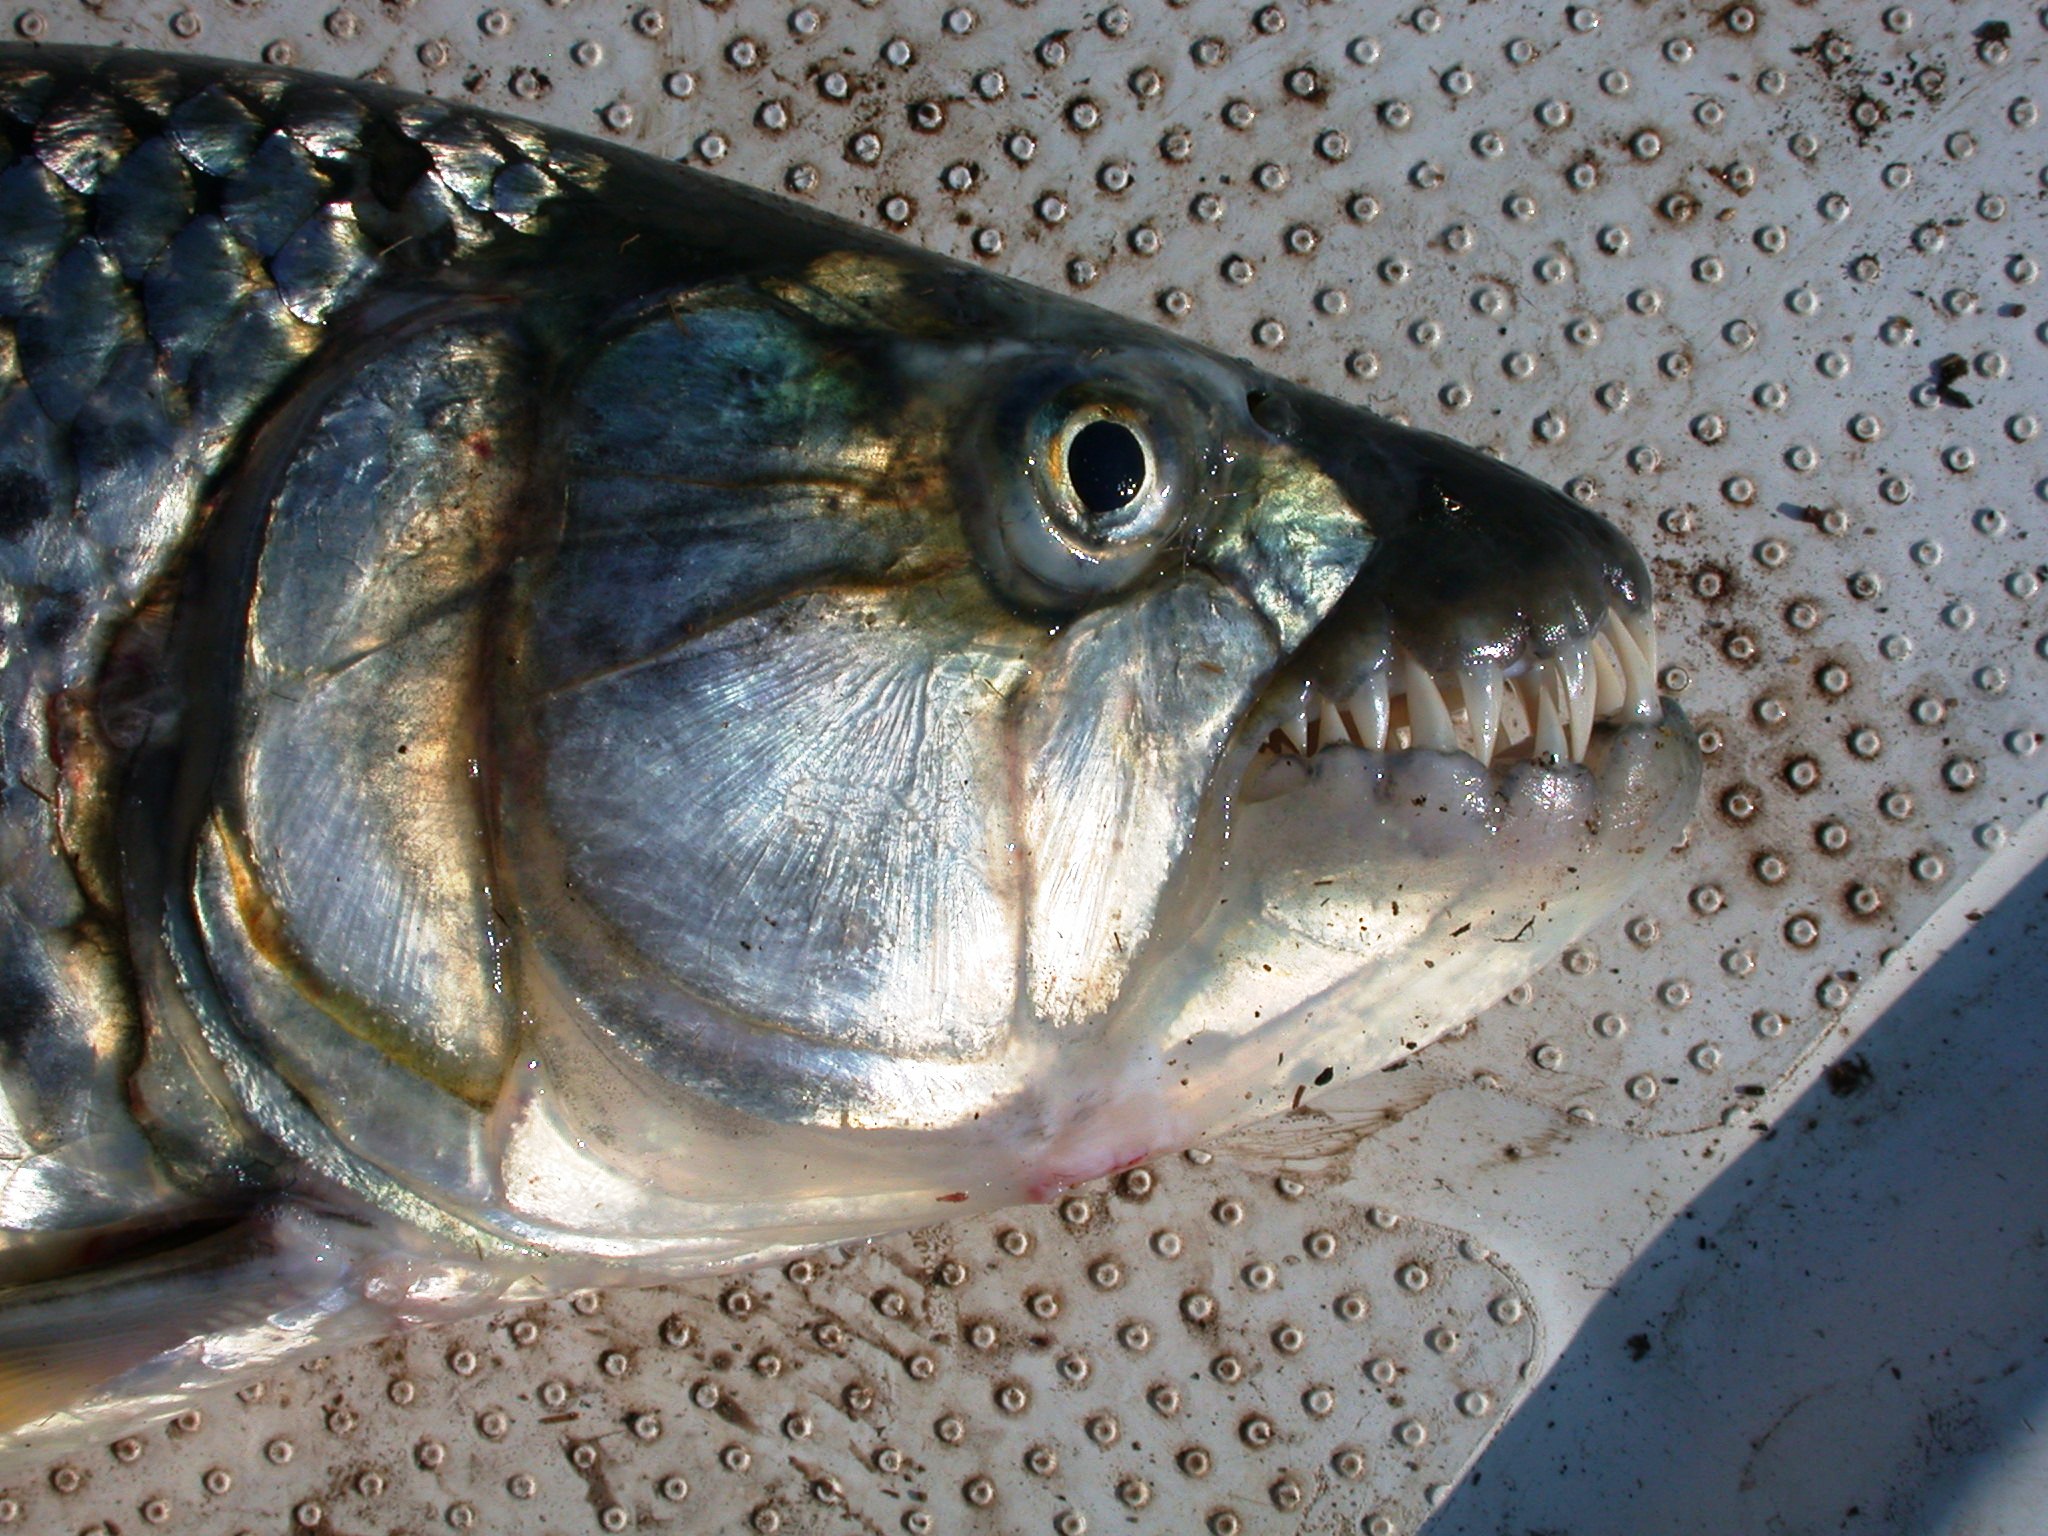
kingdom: Animalia
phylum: Chordata
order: Characiformes
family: Alestidae
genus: Hydrocynus
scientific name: Hydrocynus vittatus
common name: Tigerfish
